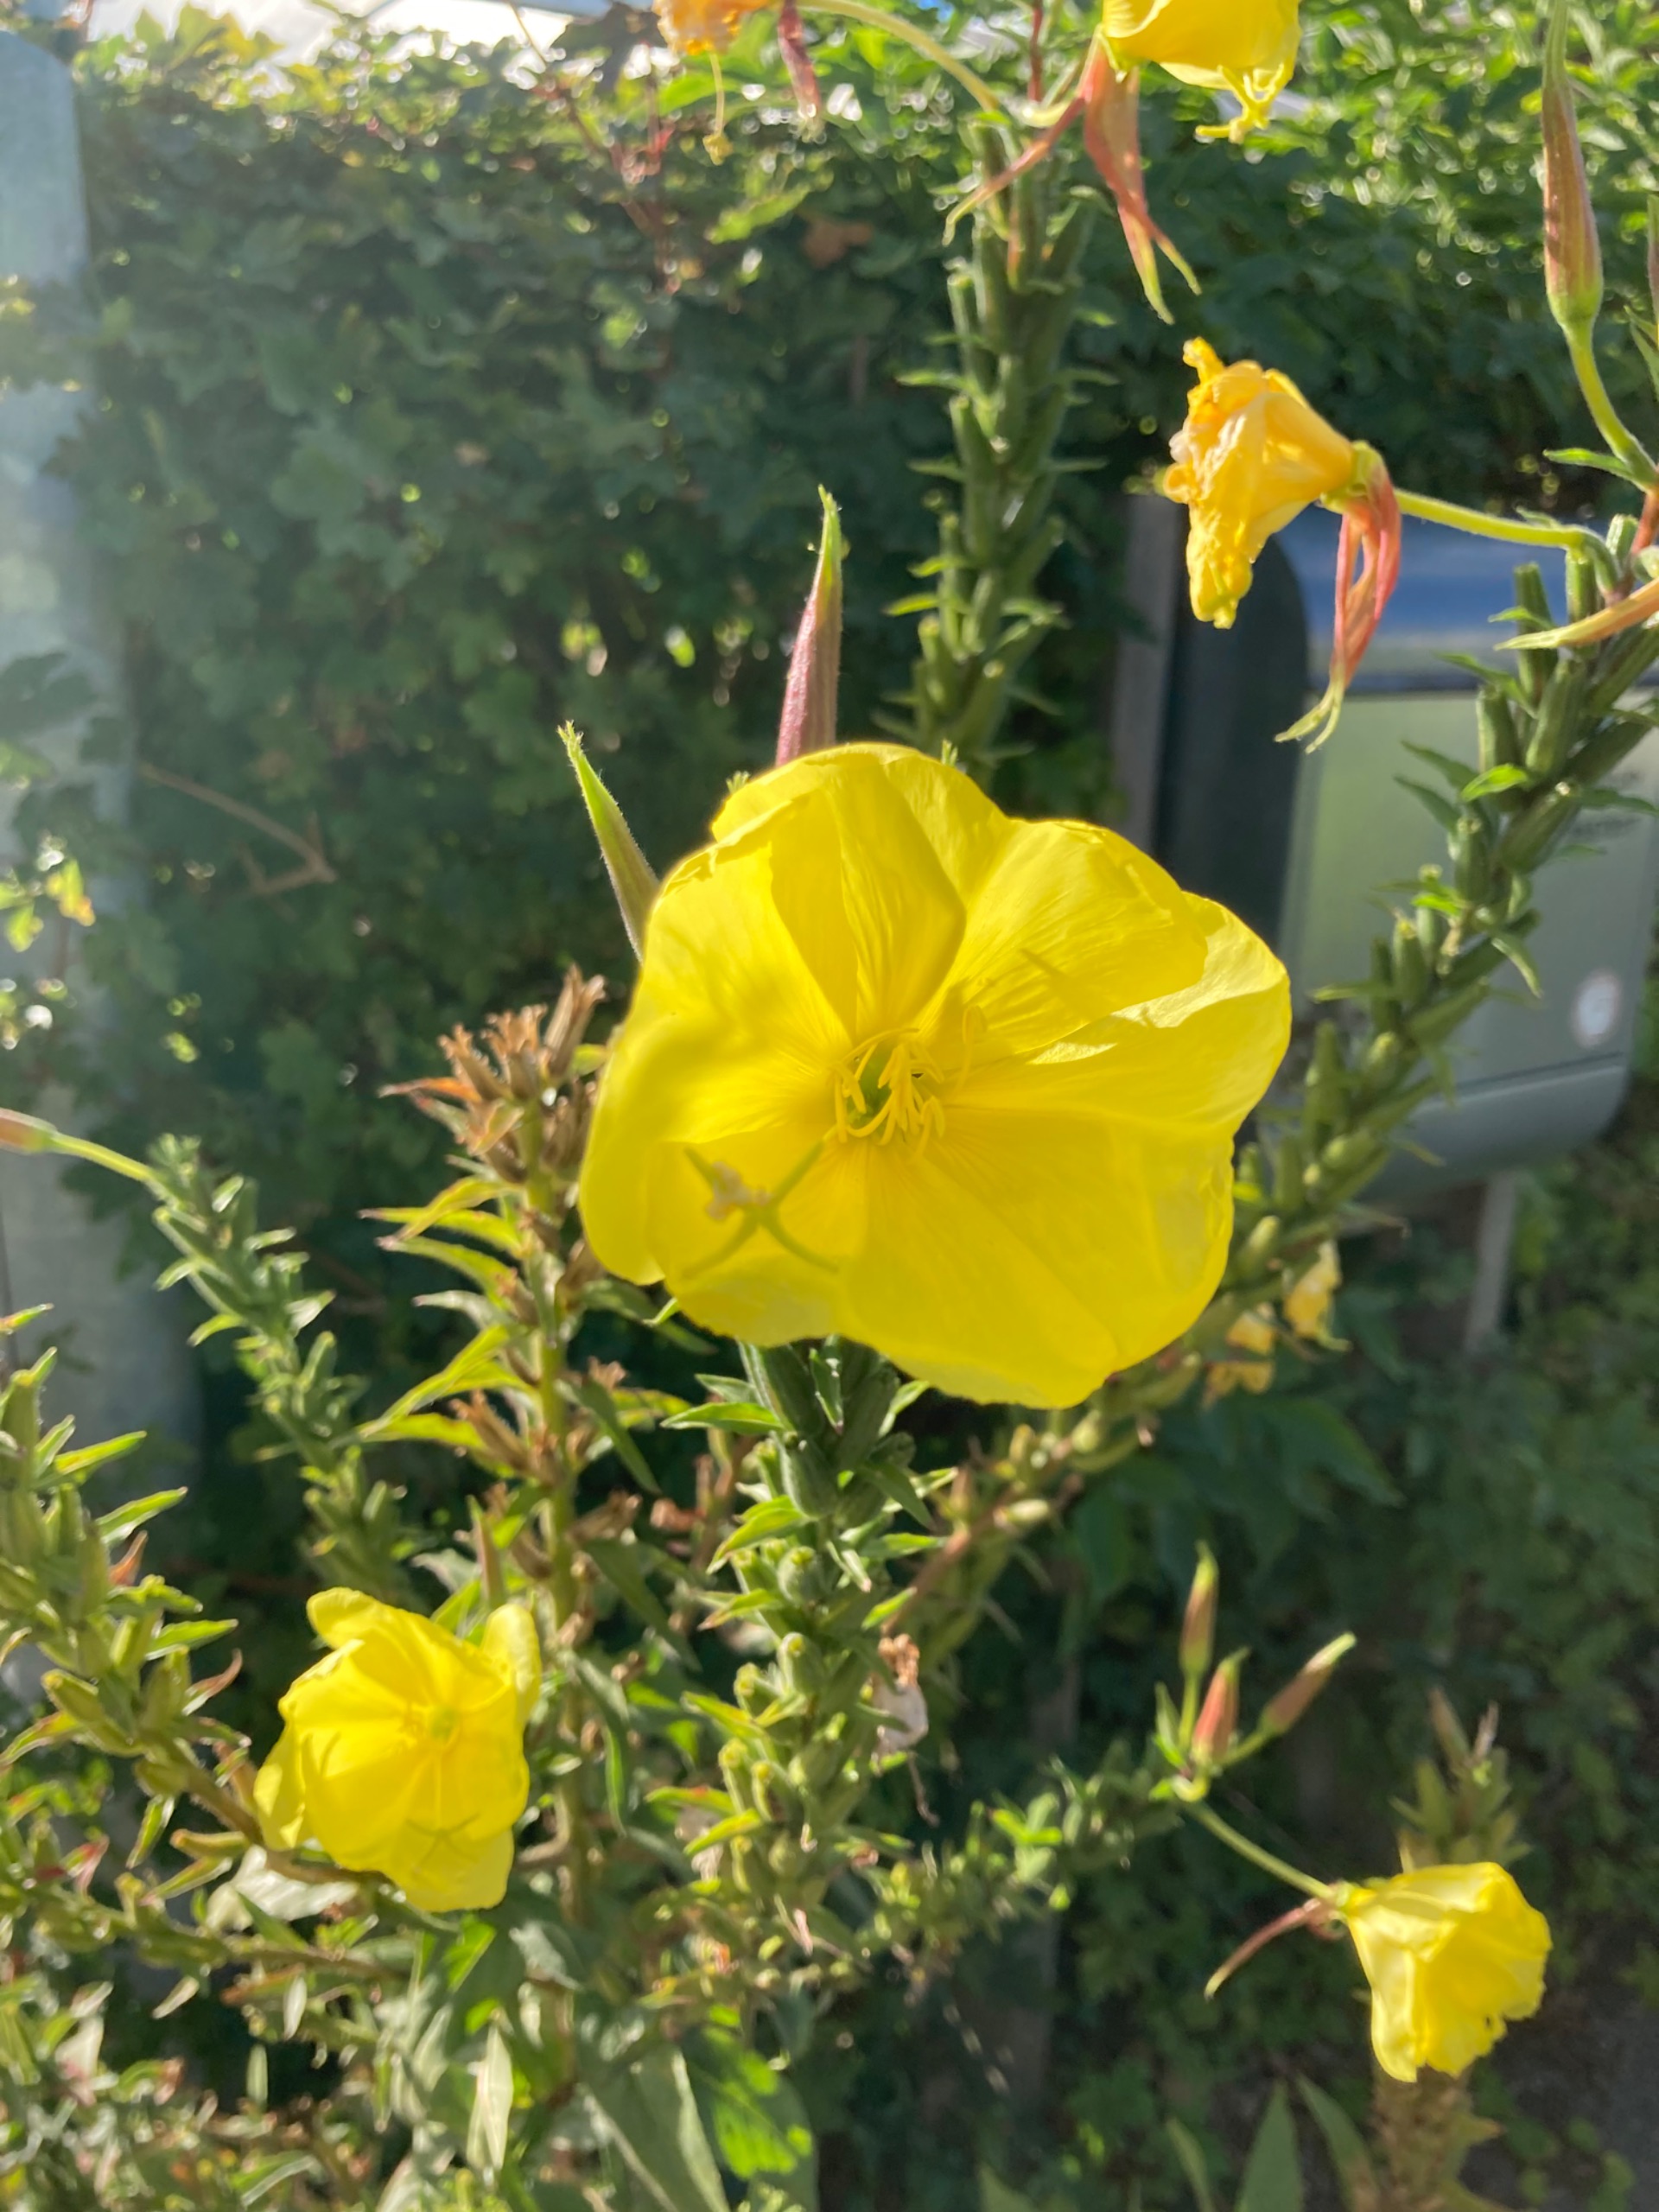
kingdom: Plantae
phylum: Tracheophyta
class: Magnoliopsida
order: Myrtales
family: Onagraceae
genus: Oenothera
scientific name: Oenothera glazioviana
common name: Kæmpe-natlys
